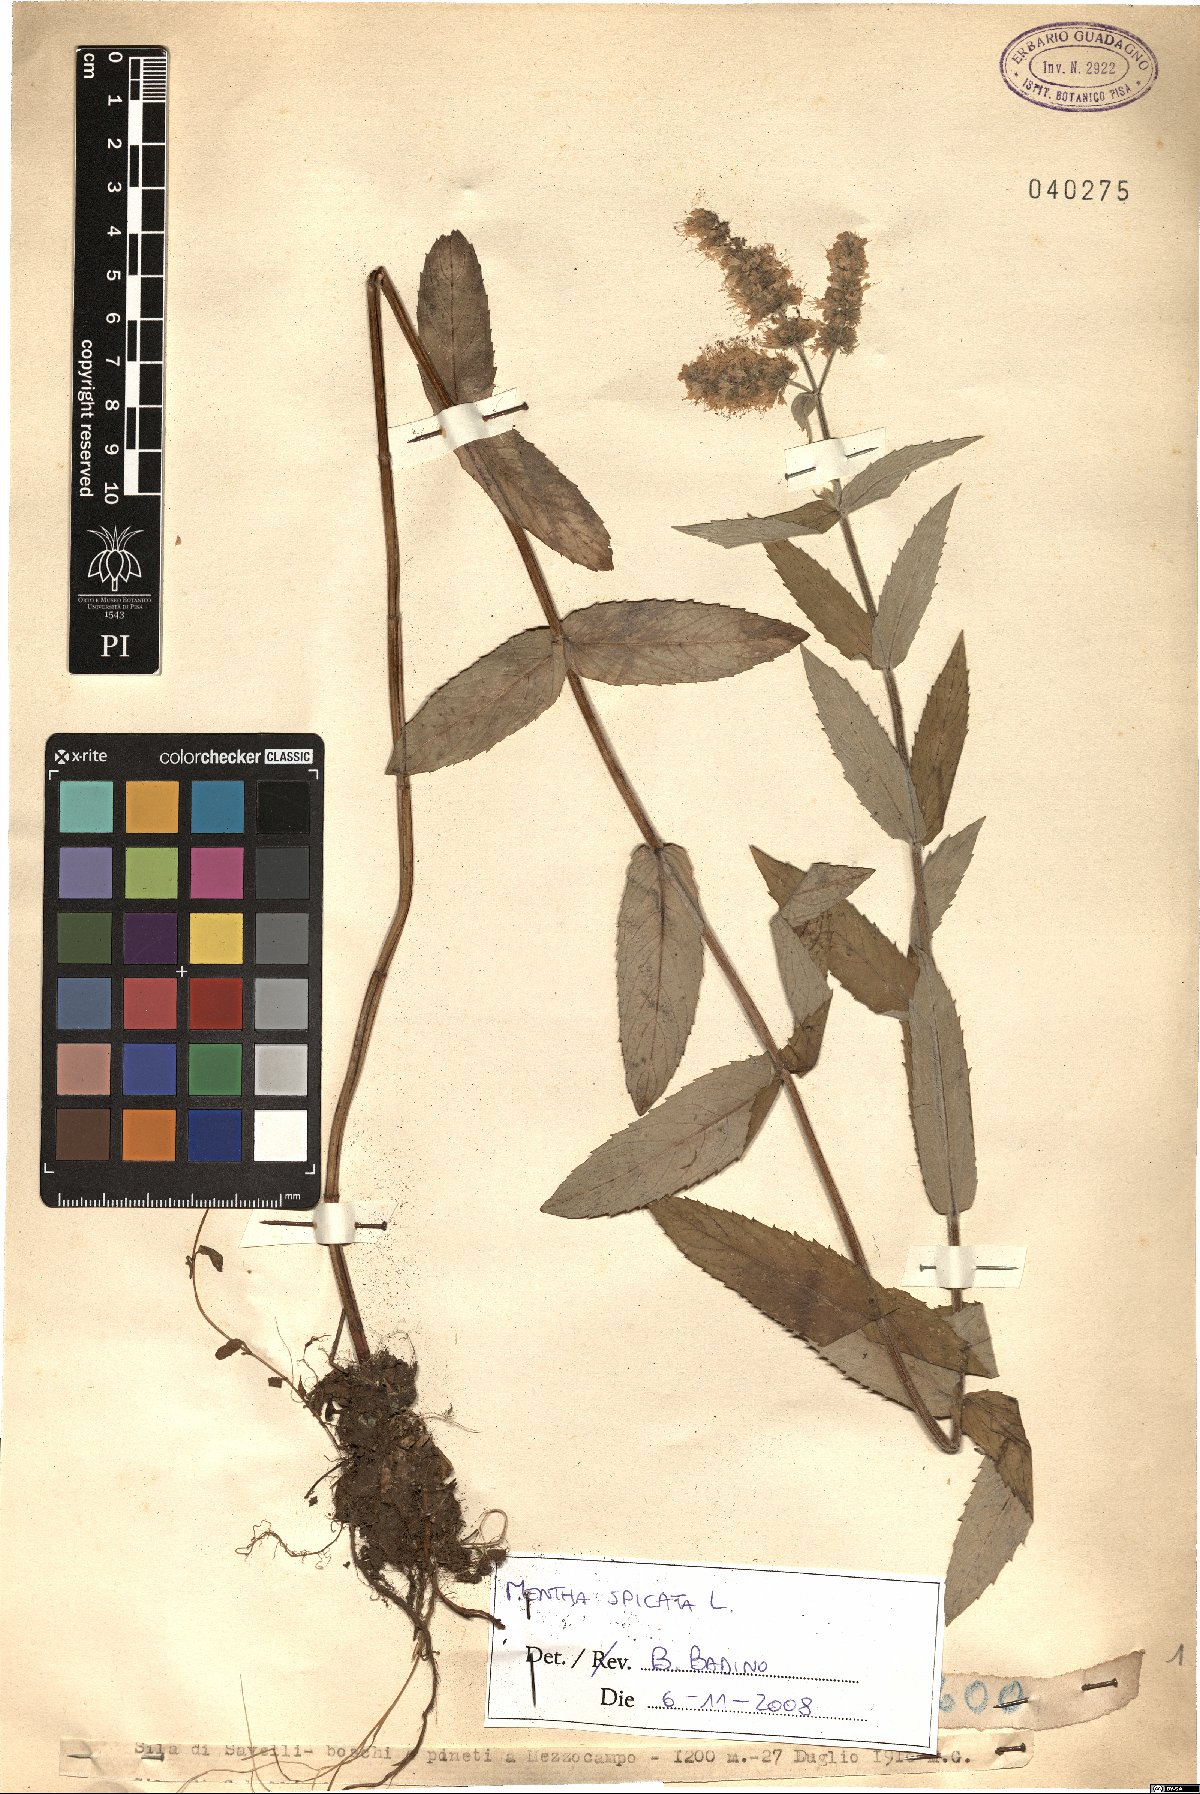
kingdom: Plantae
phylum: Tracheophyta
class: Magnoliopsida
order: Lamiales
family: Lamiaceae
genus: Mentha
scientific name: Mentha spicata
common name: Spearmint
